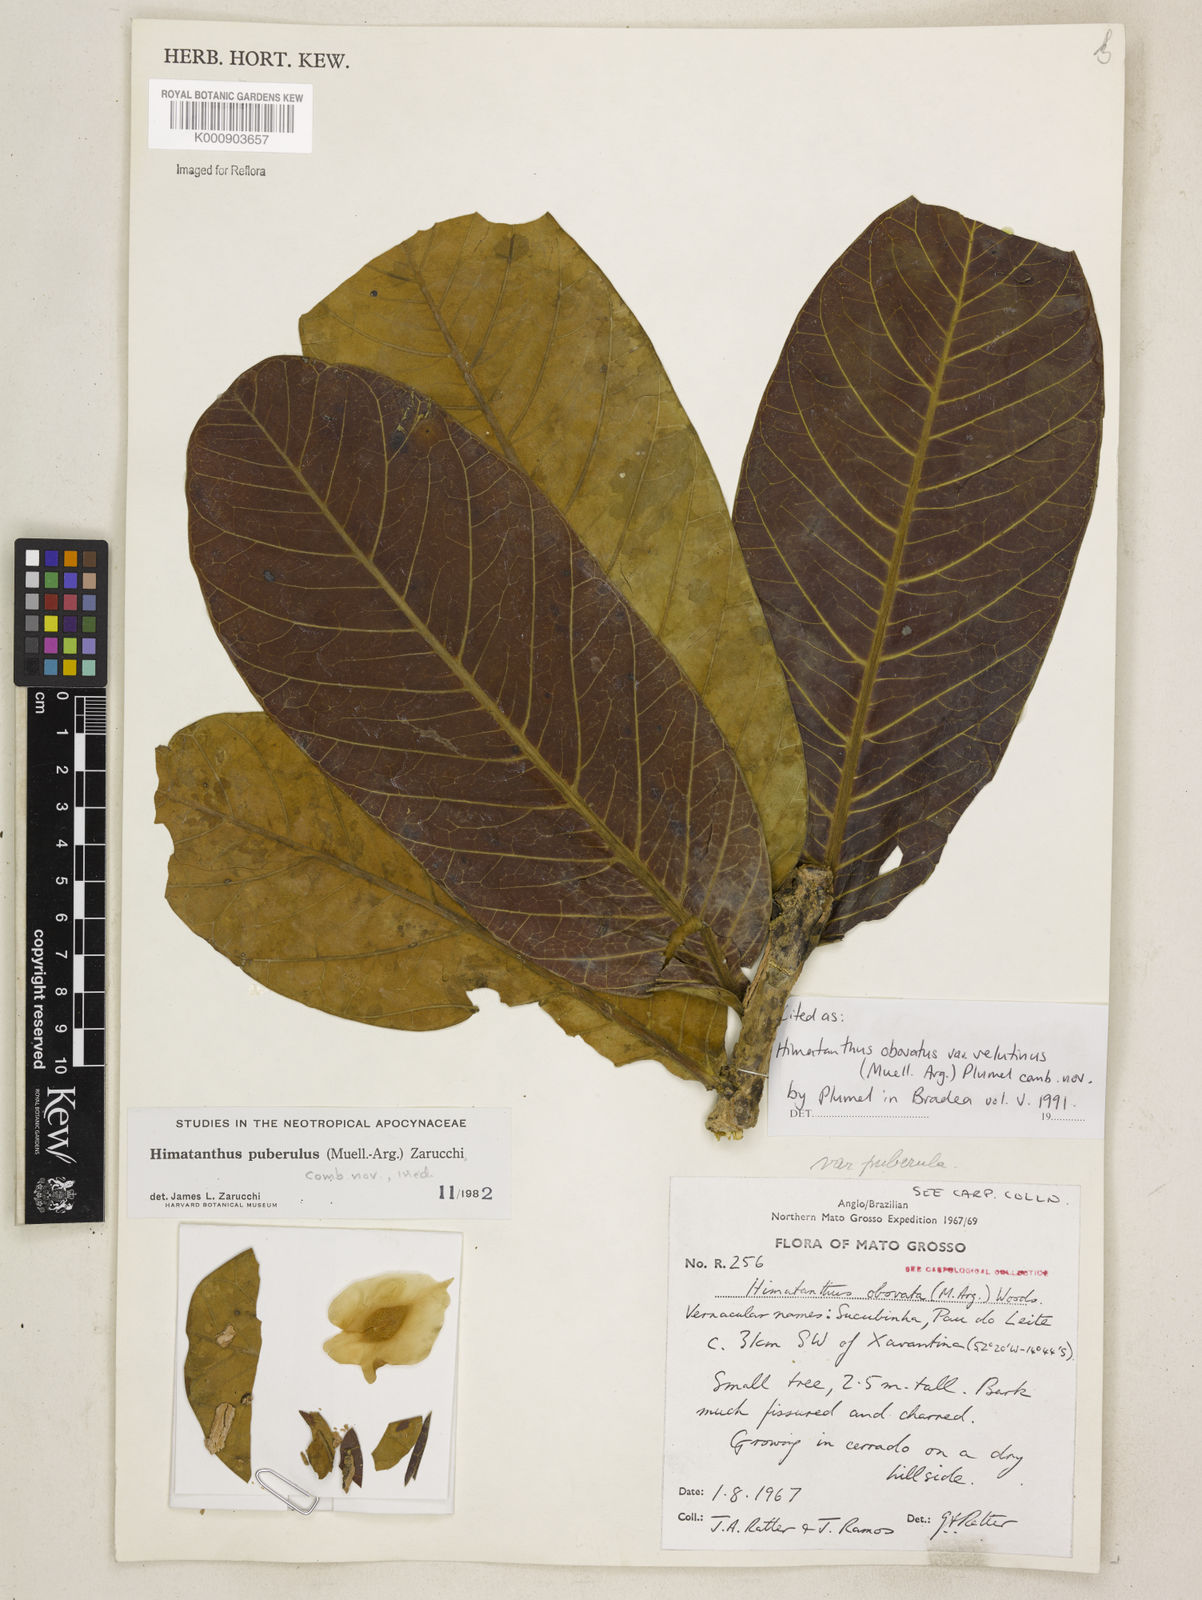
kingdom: Plantae
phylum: Tracheophyta
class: Magnoliopsida
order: Gentianales
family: Apocynaceae
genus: Himatanthus
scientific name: Himatanthus
